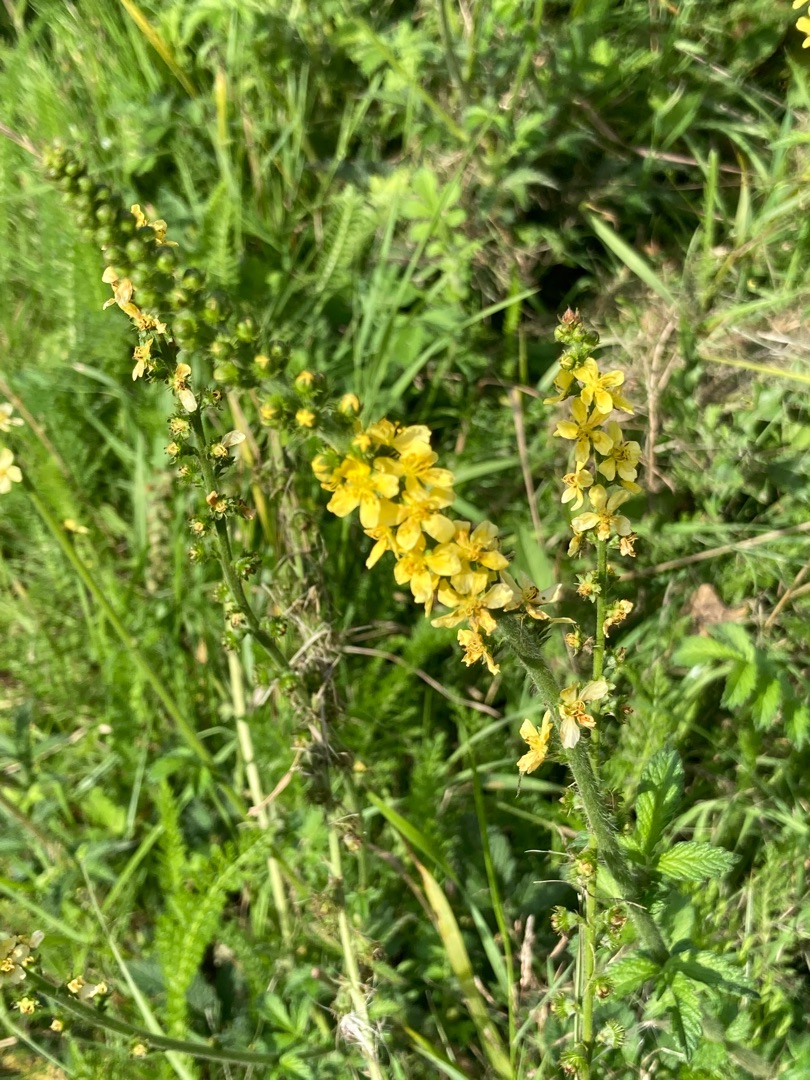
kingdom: Plantae
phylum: Tracheophyta
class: Magnoliopsida
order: Rosales
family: Rosaceae
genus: Agrimonia
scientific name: Agrimonia eupatoria
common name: Almindelig agermåne
